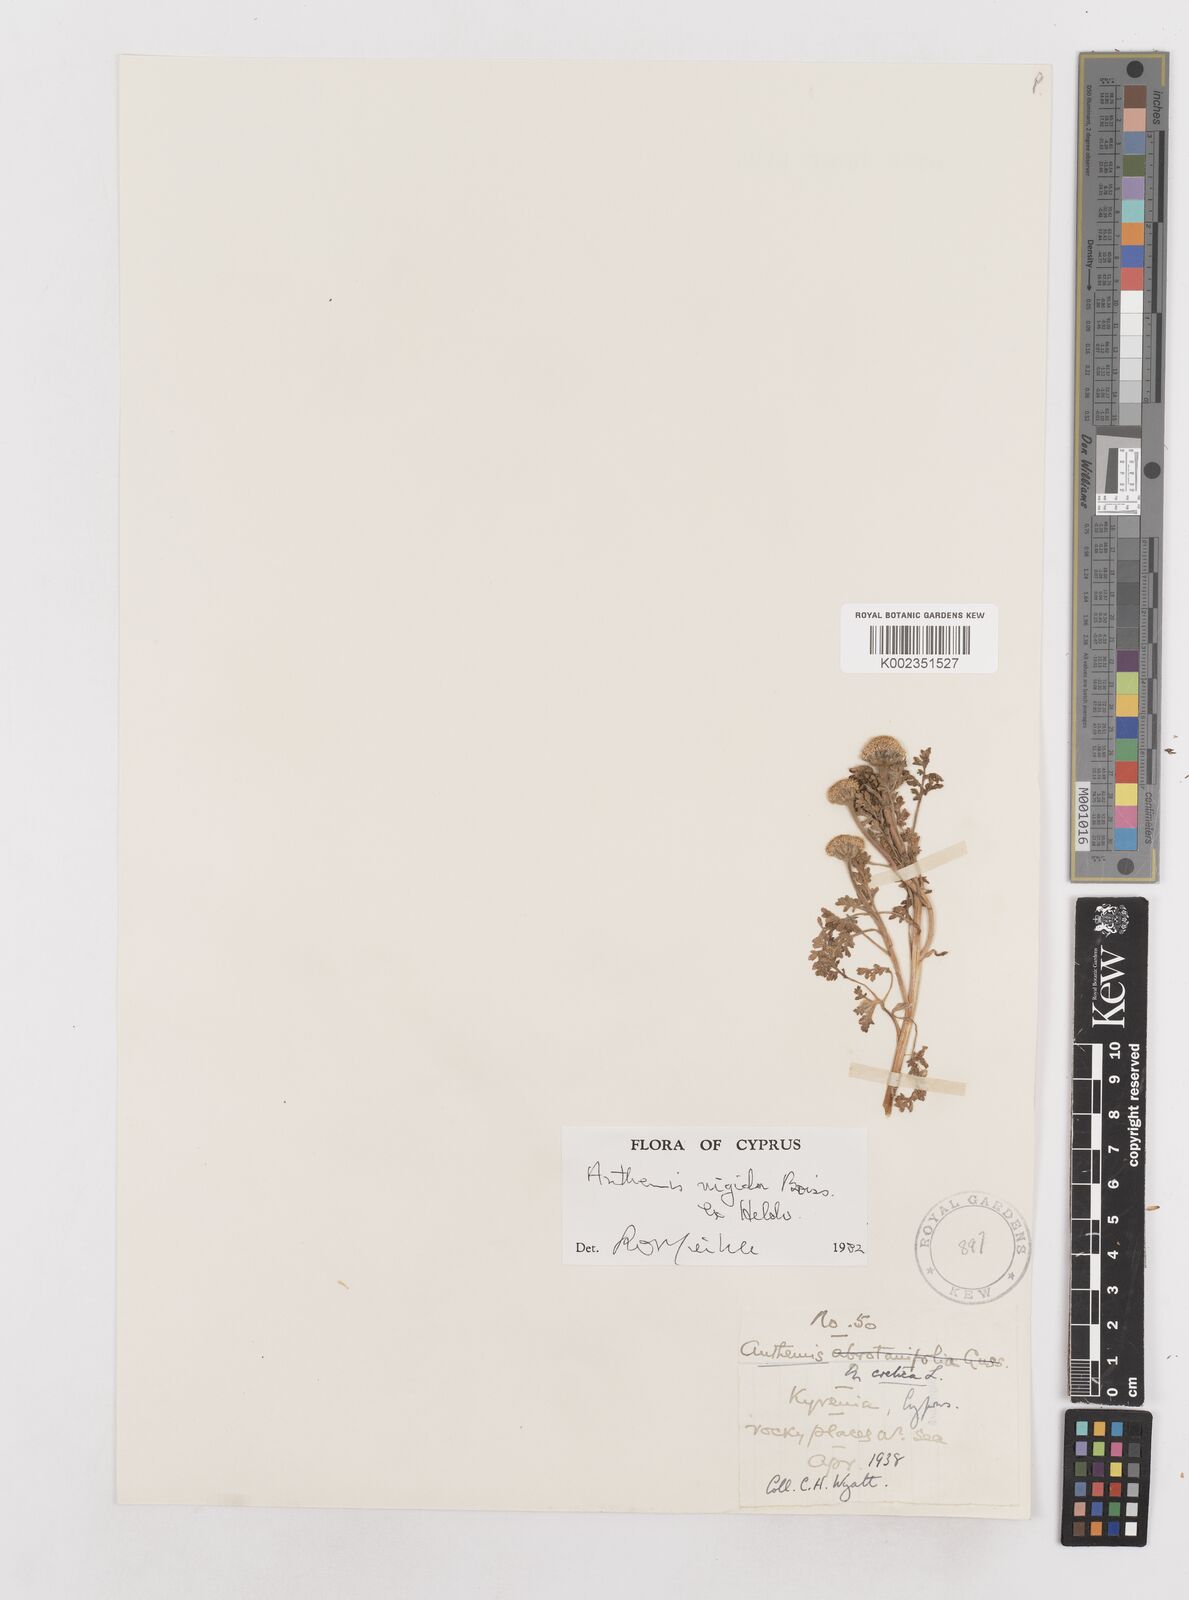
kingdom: Plantae
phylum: Tracheophyta
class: Magnoliopsida
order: Asterales
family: Asteraceae
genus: Anthemis
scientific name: Anthemis rigida
